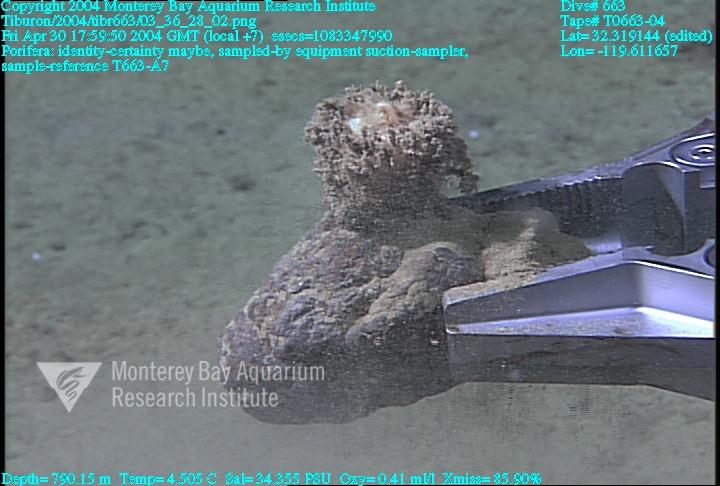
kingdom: Animalia
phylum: Porifera
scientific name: Porifera
